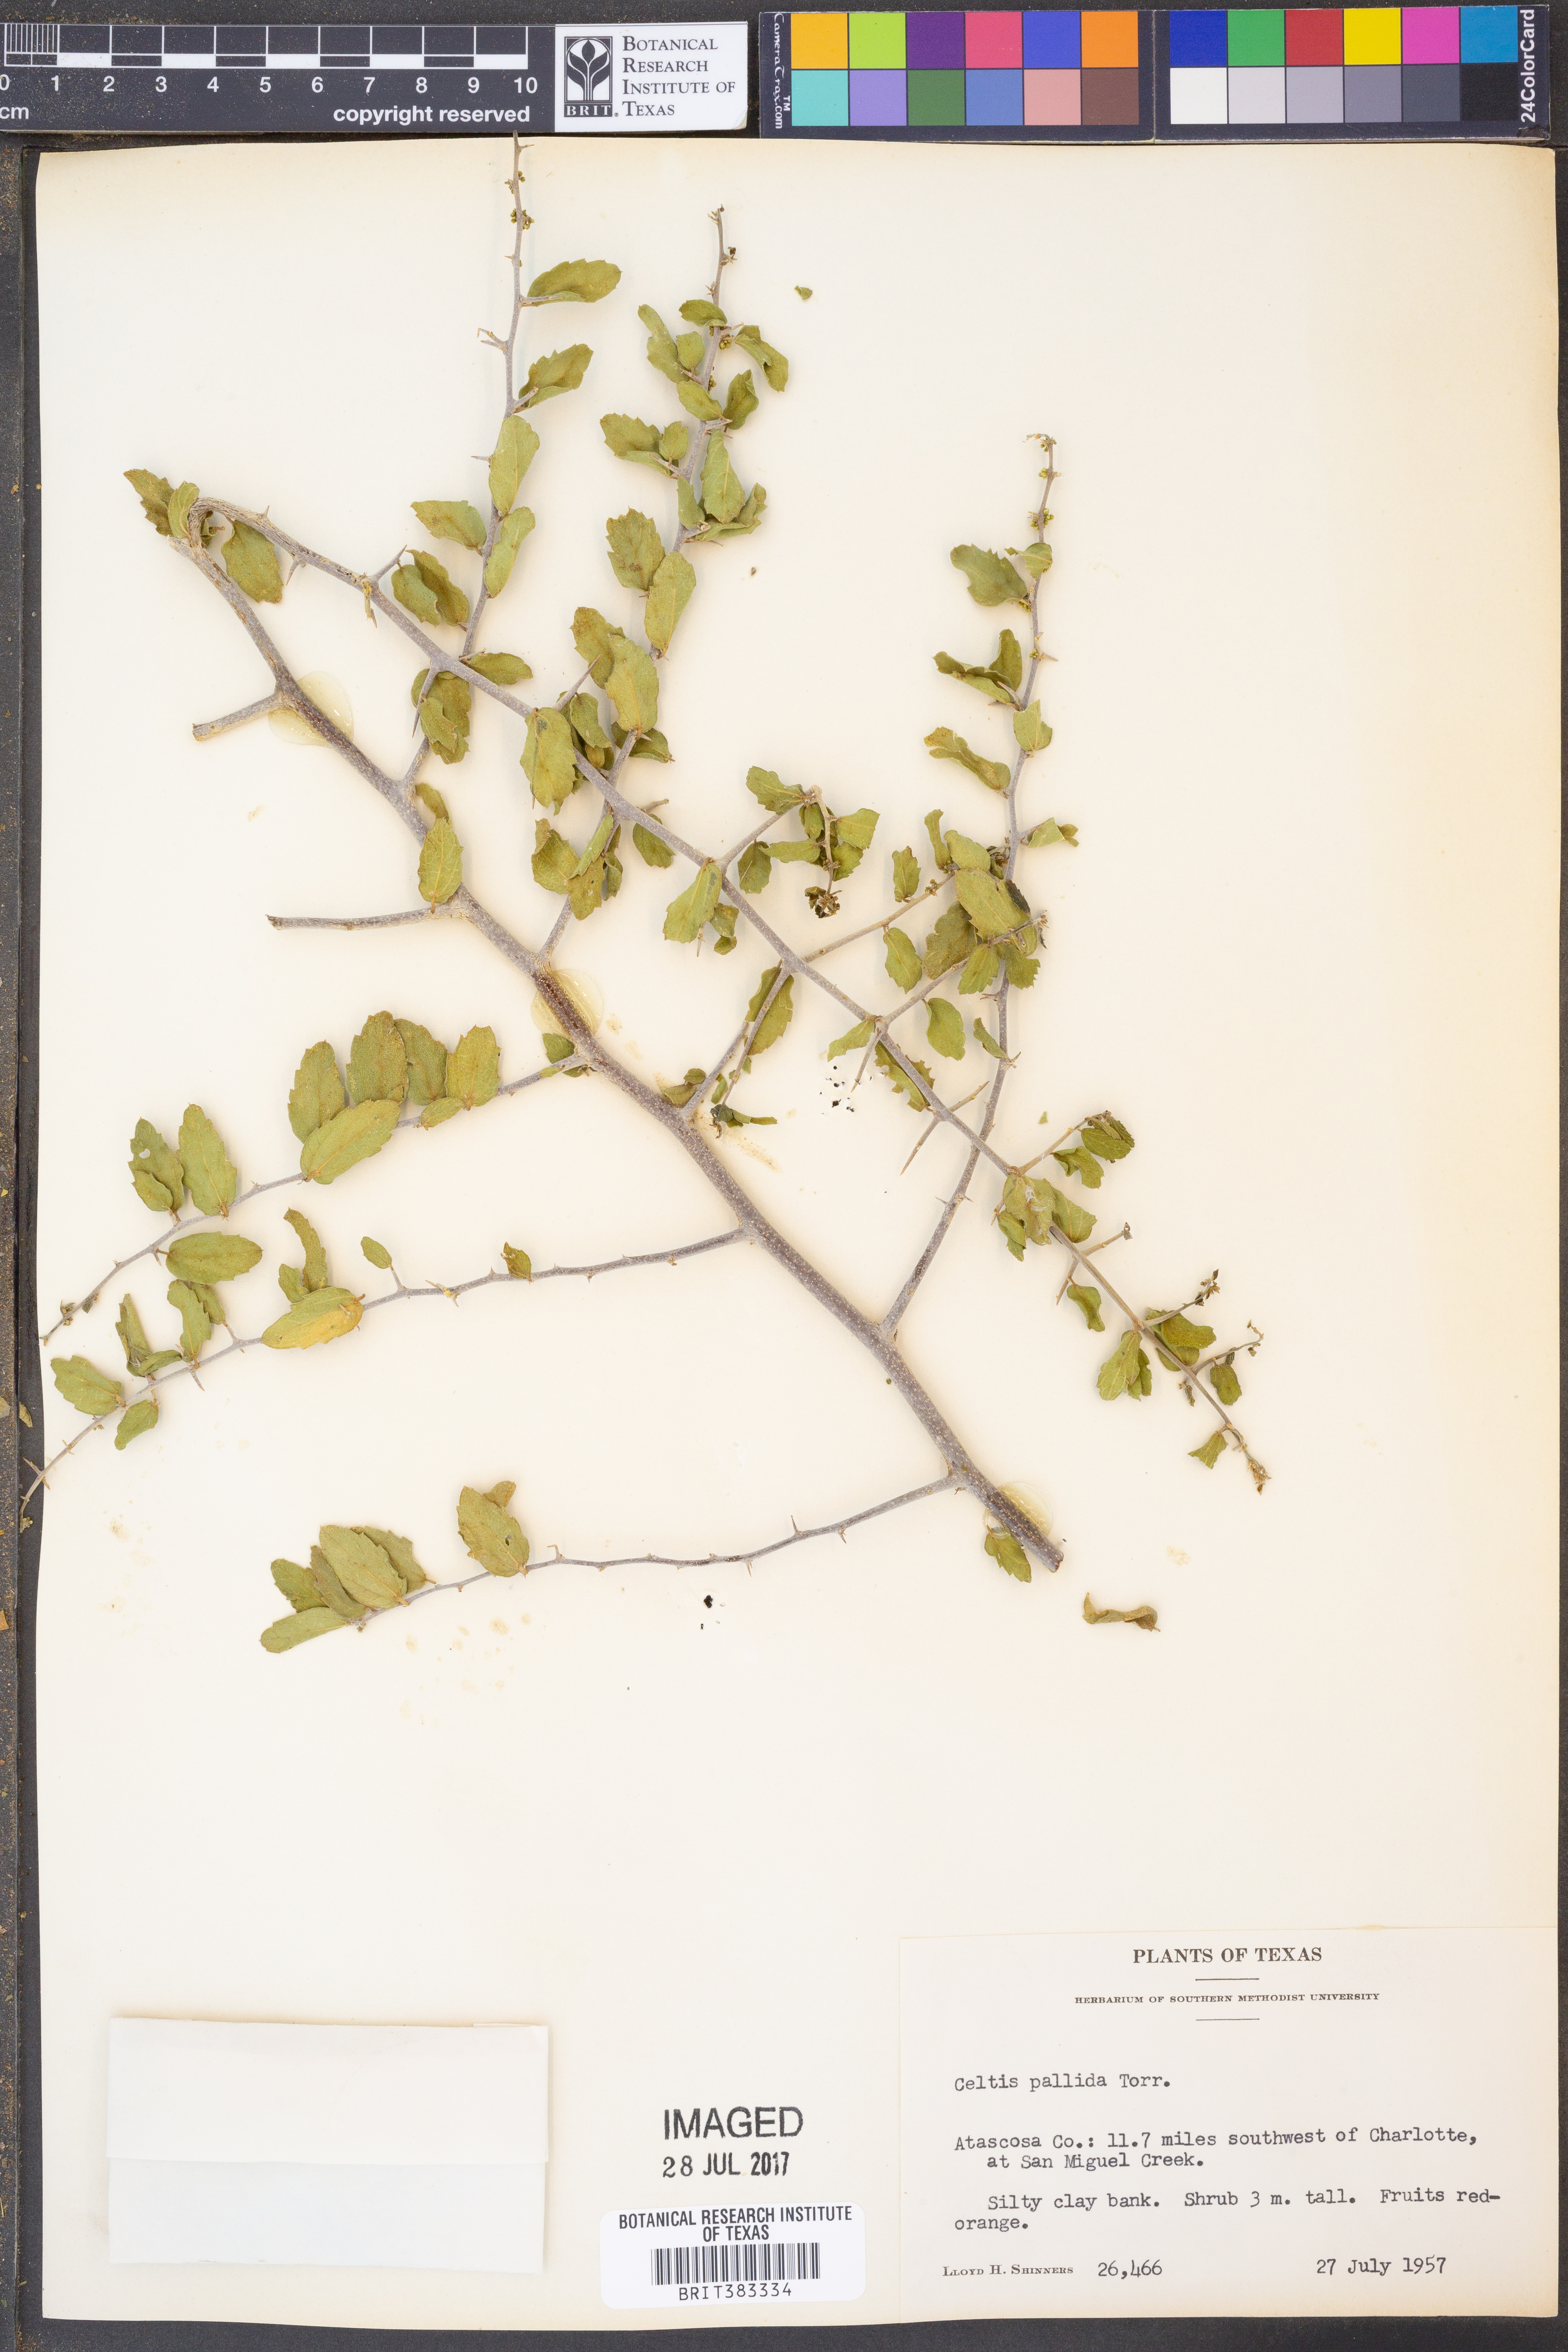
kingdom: Plantae
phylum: Tracheophyta
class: Magnoliopsida
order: Rosales
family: Cannabaceae
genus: Celtis
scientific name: Celtis pallida
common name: Desert hackberry
